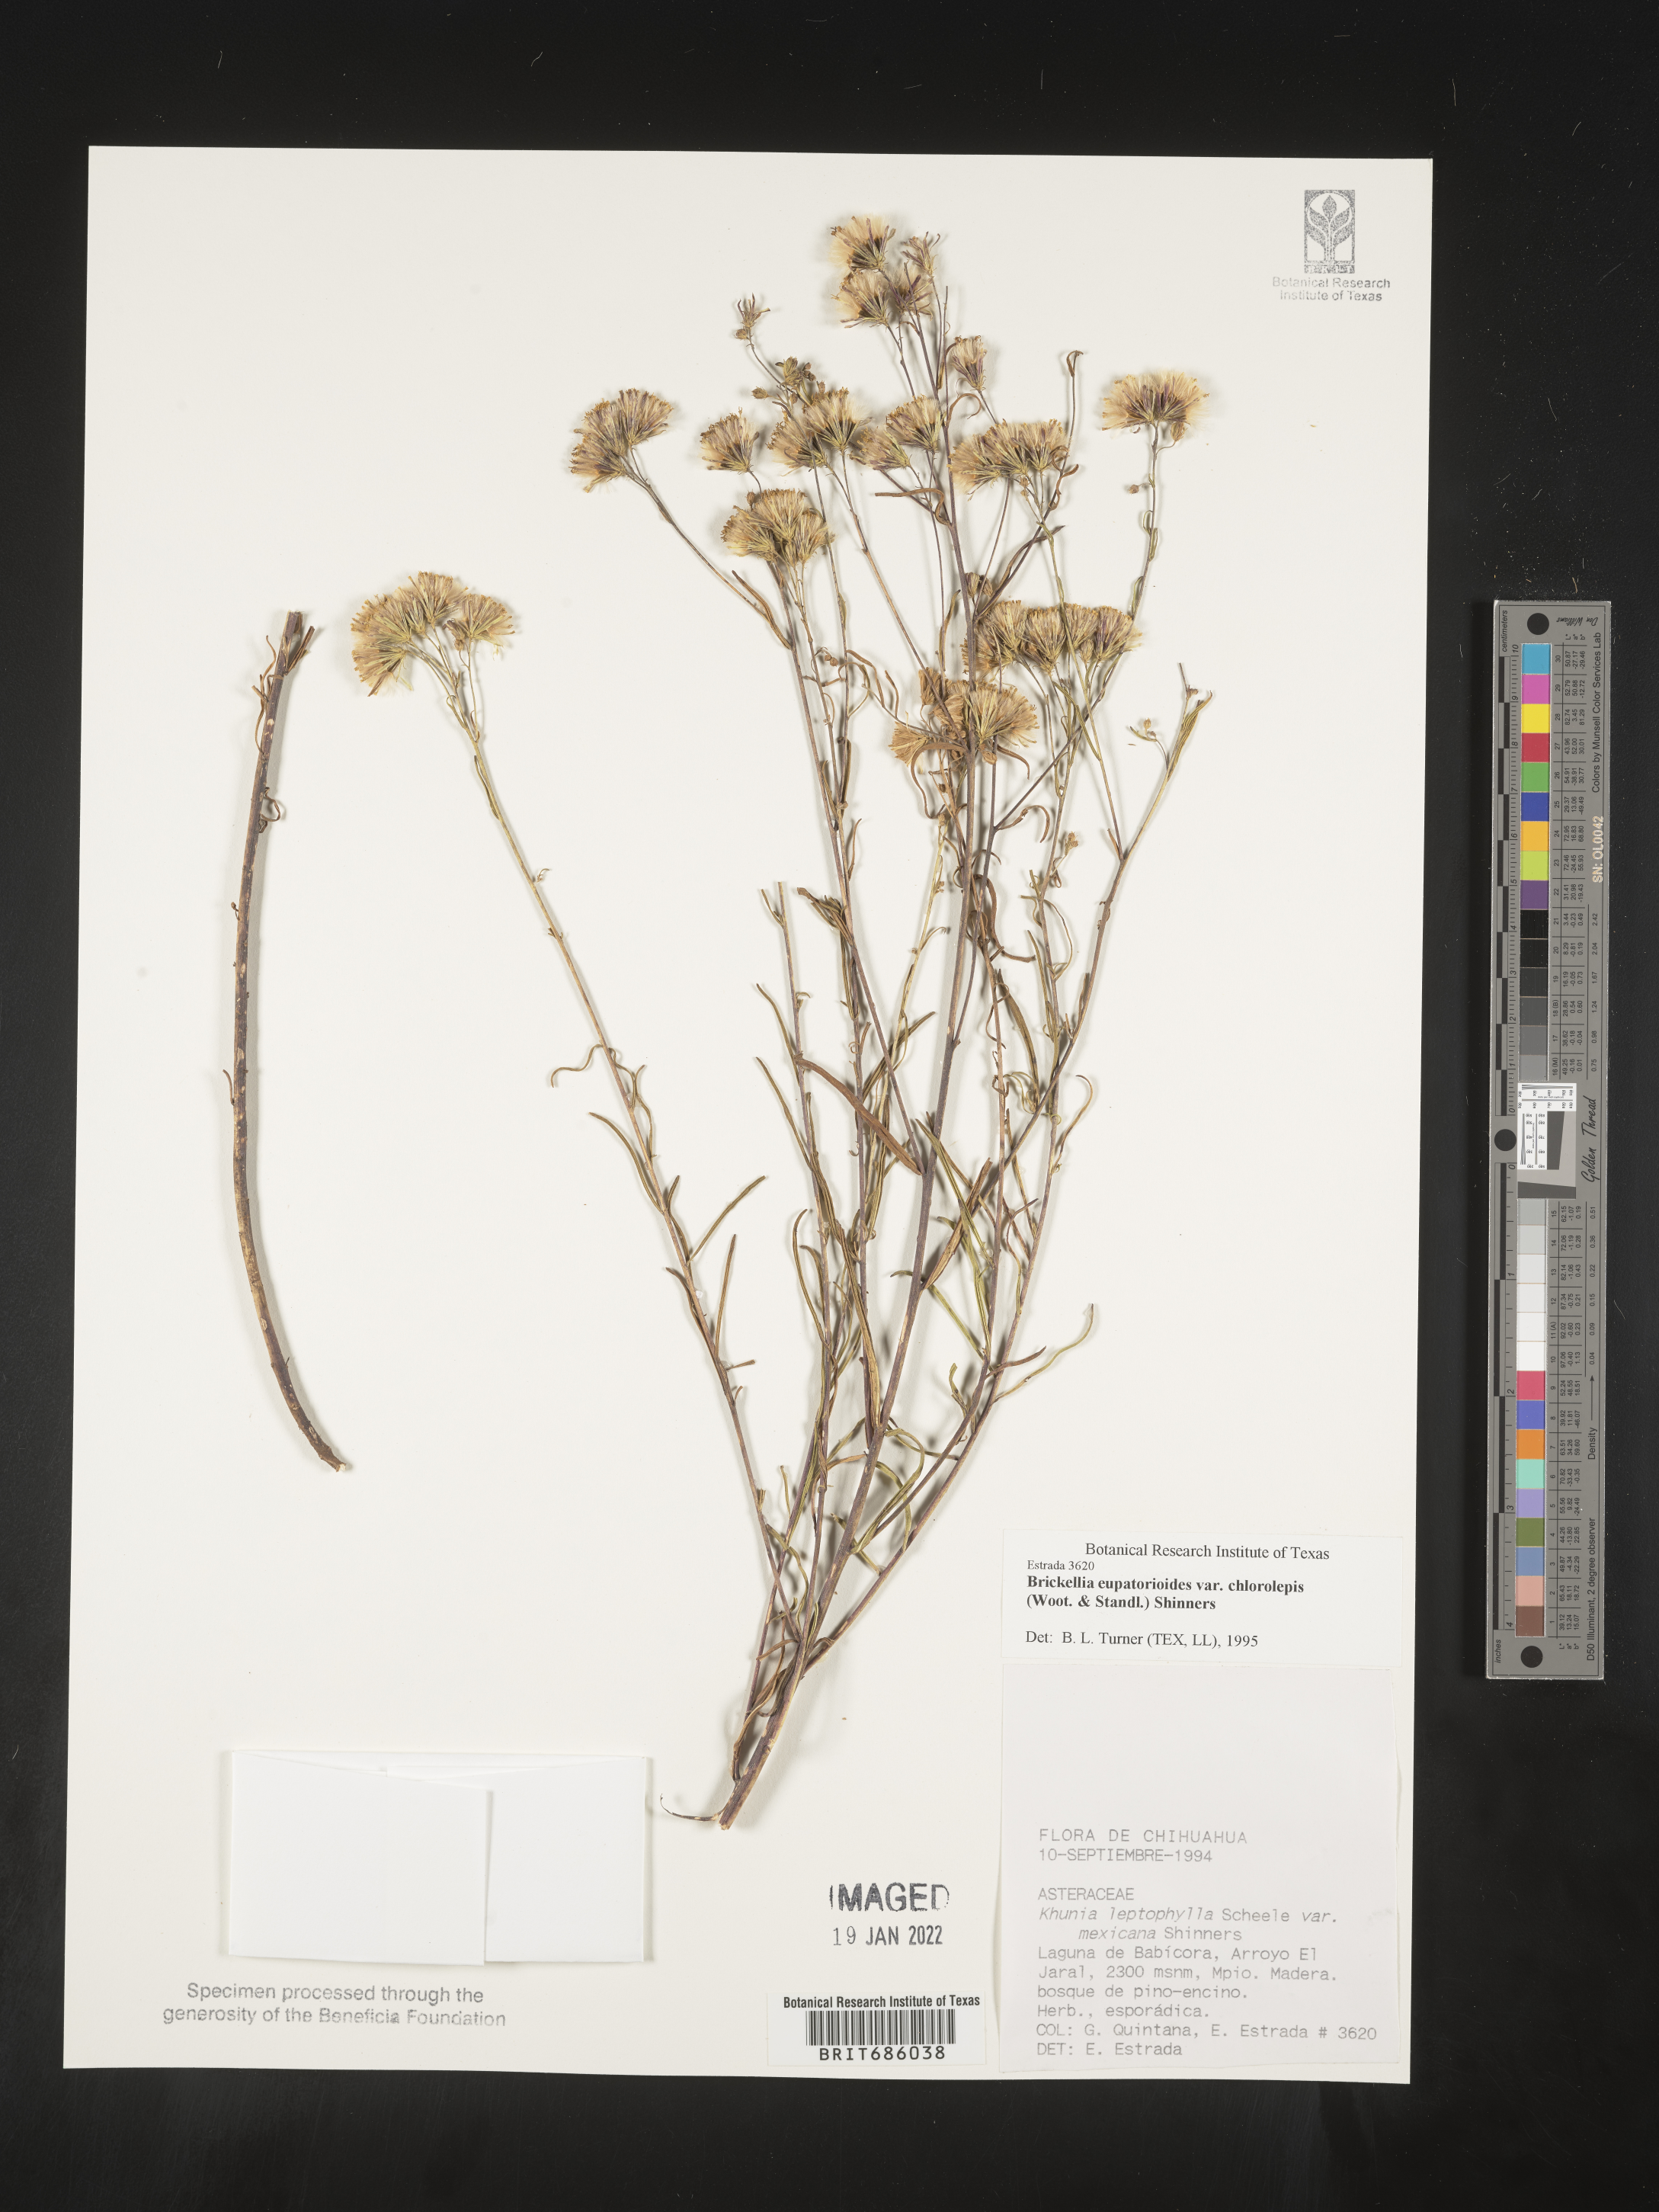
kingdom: Plantae
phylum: Tracheophyta
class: Magnoliopsida
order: Asterales
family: Asteraceae
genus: Brickellia
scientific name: Brickellia
